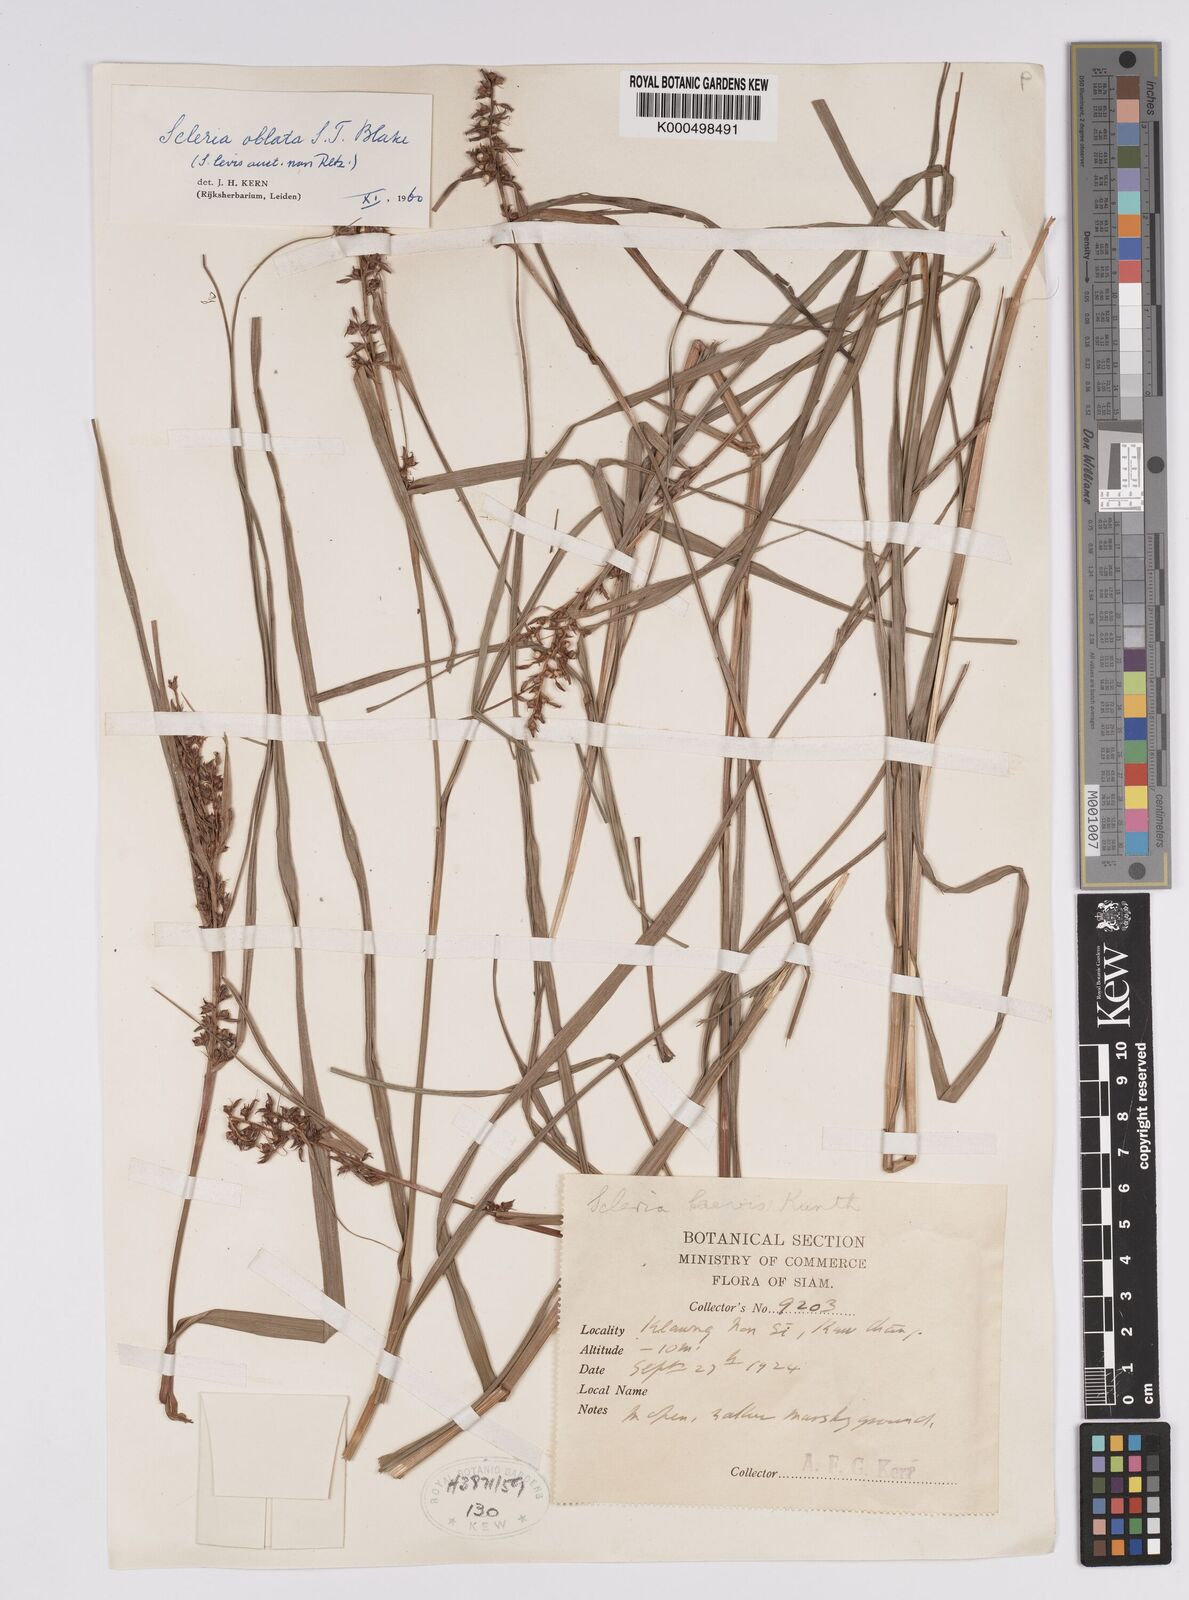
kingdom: Plantae
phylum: Tracheophyta
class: Liliopsida
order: Poales
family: Cyperaceae
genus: Scleria
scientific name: Scleria oblata
